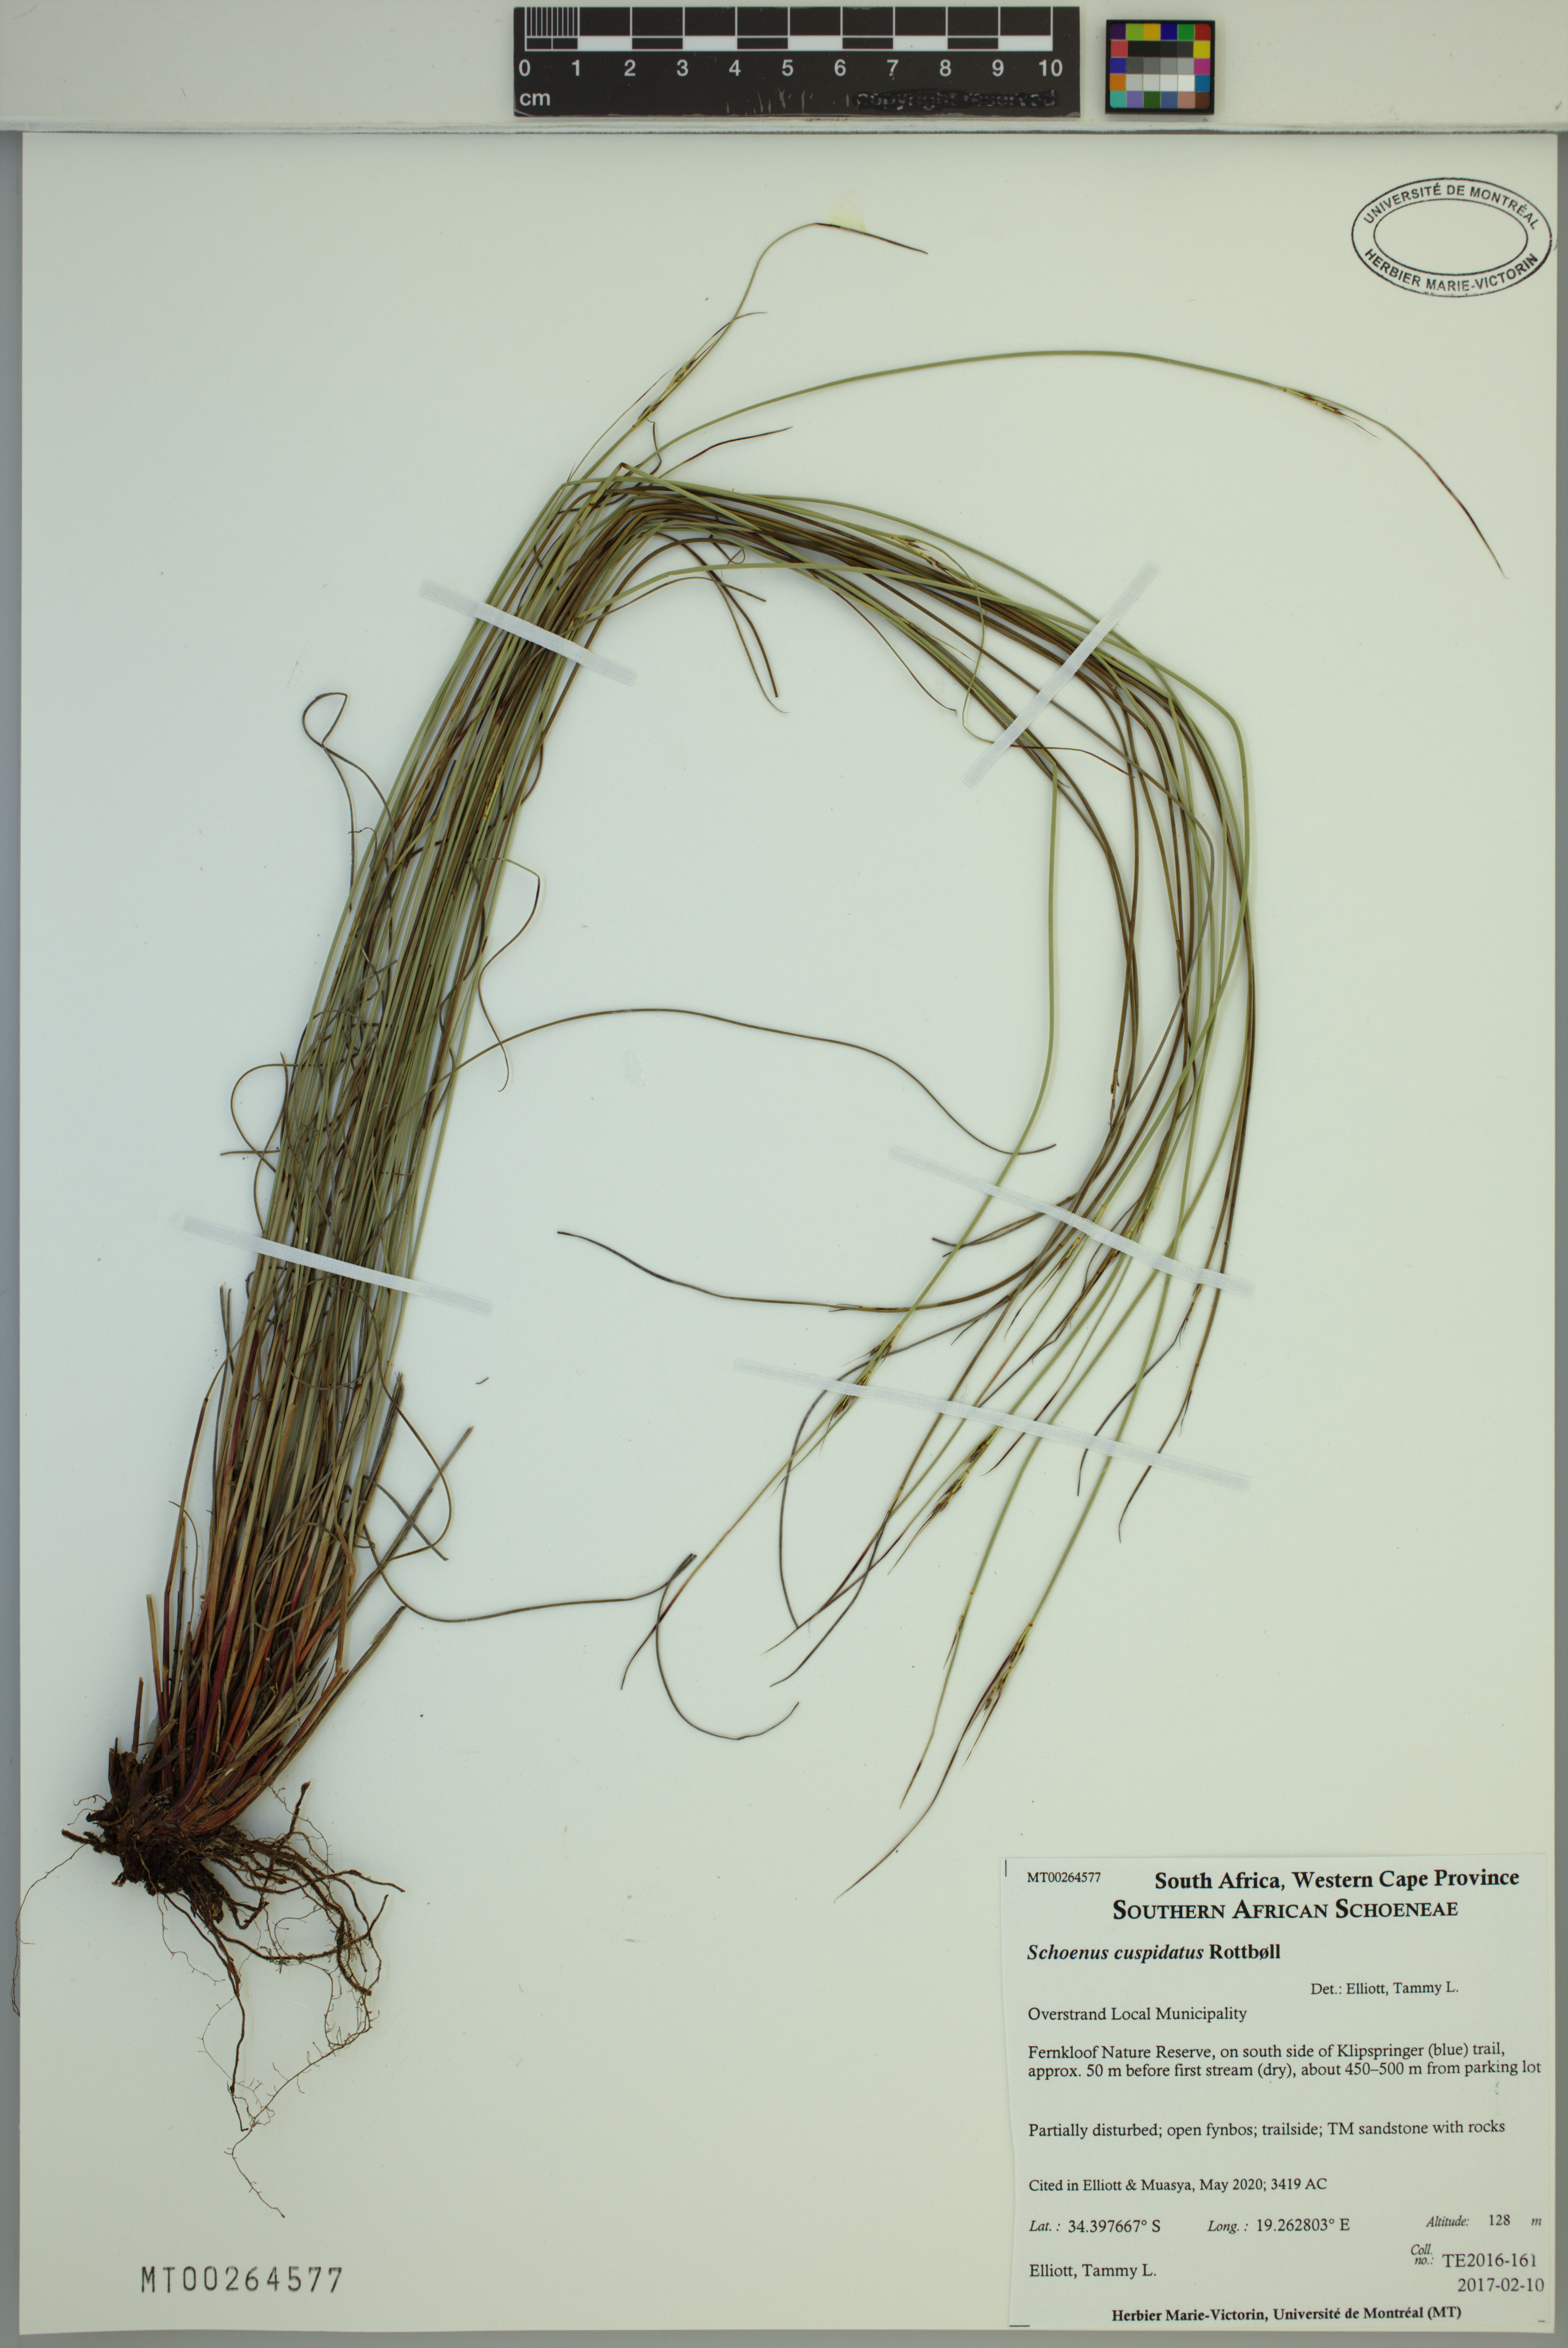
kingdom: Plantae
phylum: Tracheophyta
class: Liliopsida
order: Poales
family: Cyperaceae
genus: Schoenus
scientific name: Schoenus cuspidatus
